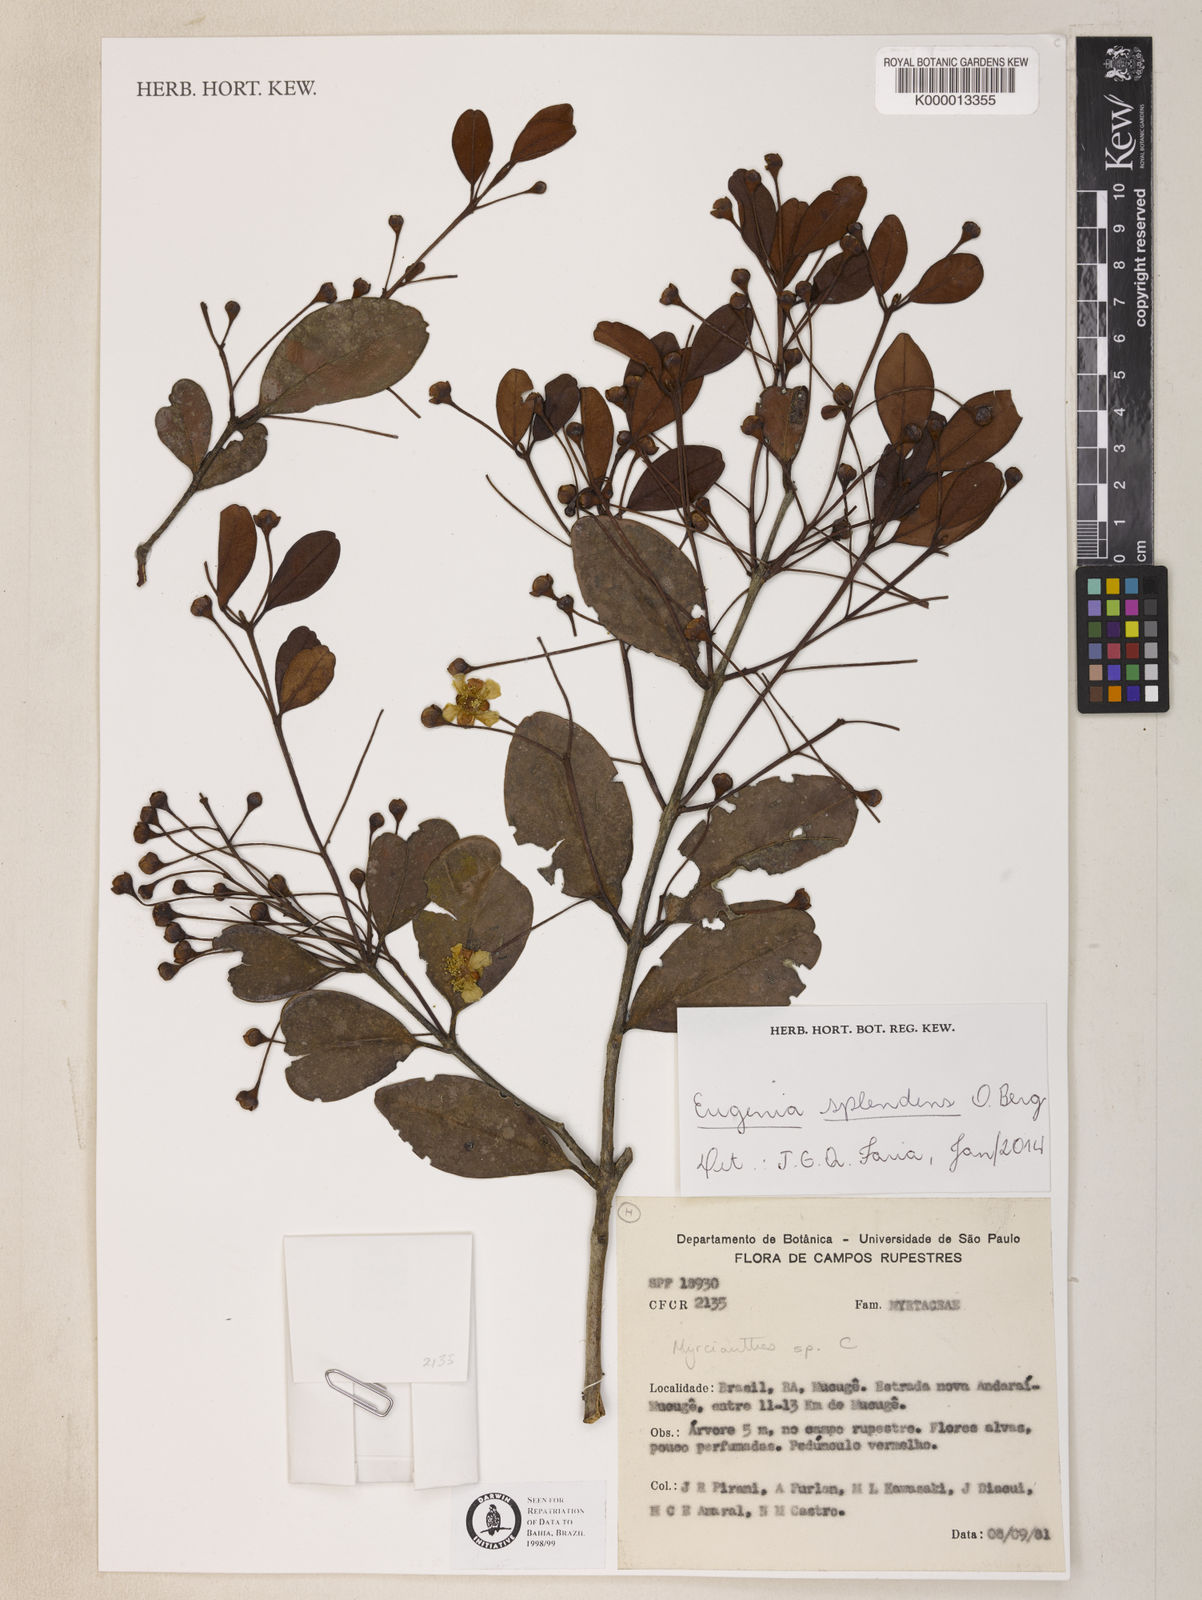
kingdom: Plantae
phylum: Tracheophyta
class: Magnoliopsida
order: Myrtales
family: Myrtaceae
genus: Eugenia
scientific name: Eugenia pohliana
